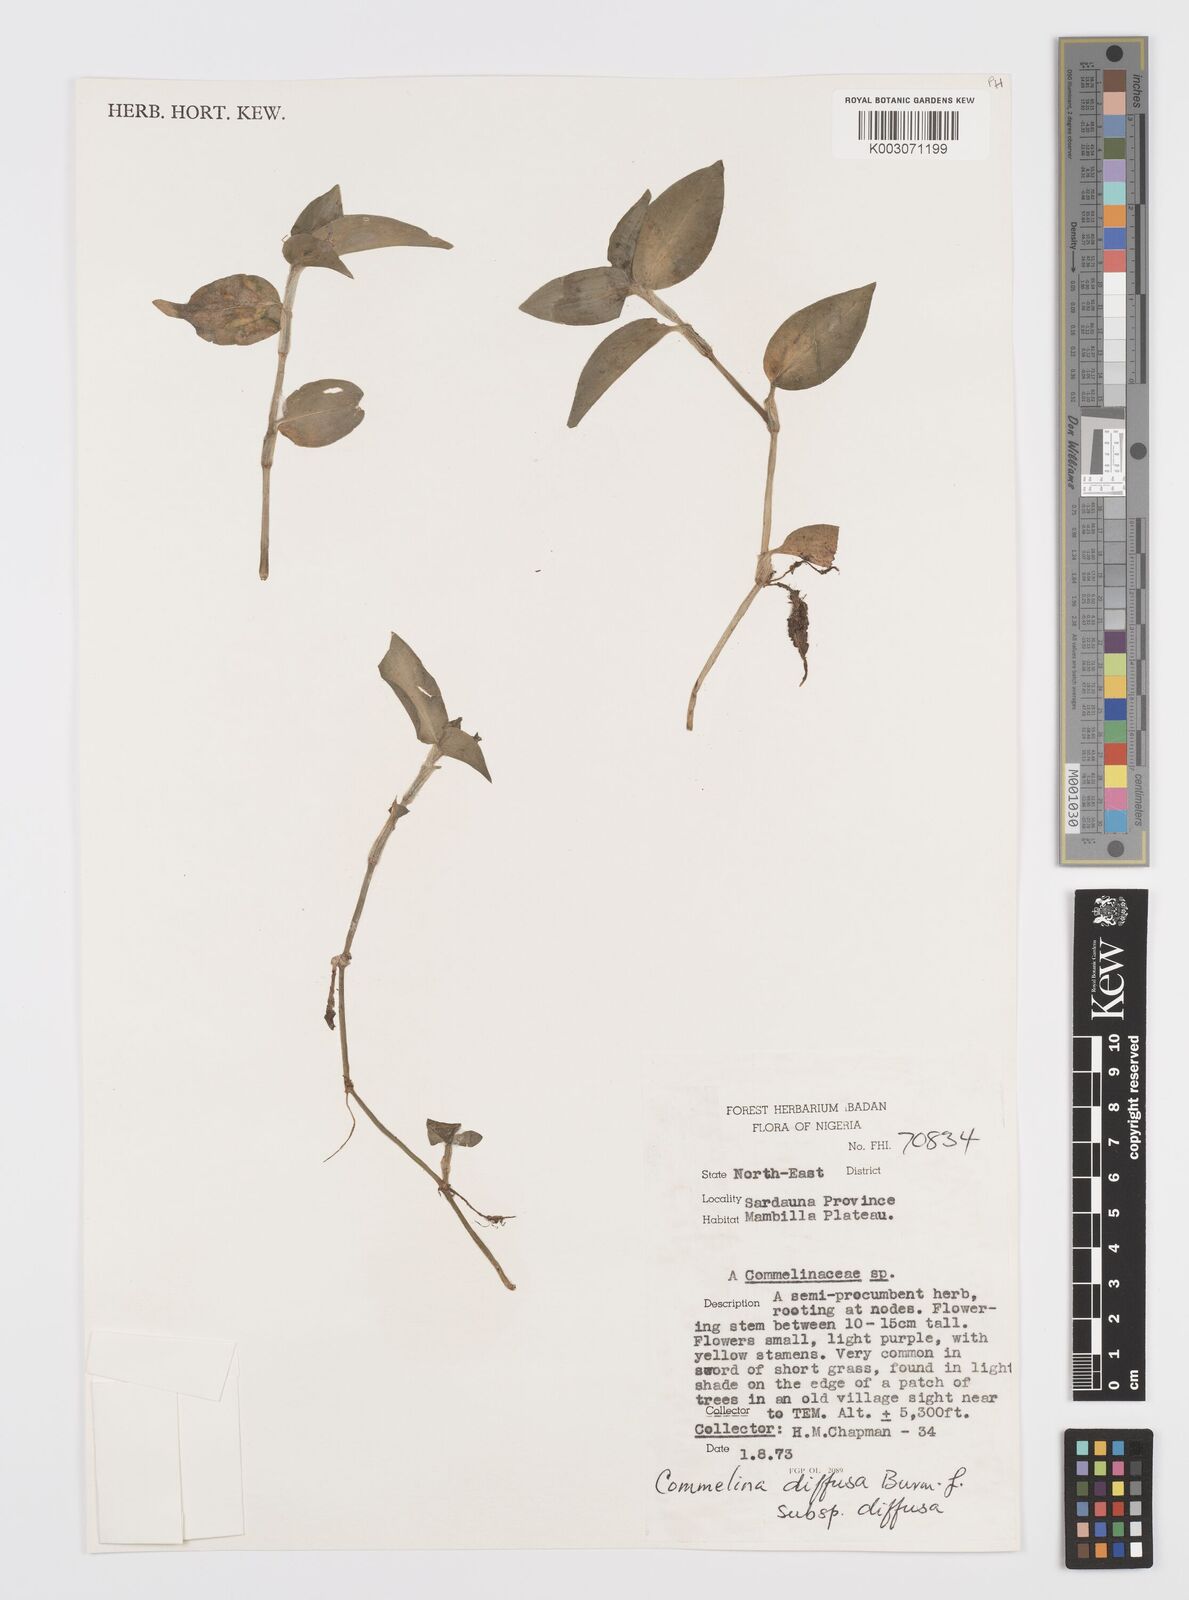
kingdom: Plantae
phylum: Tracheophyta
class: Liliopsida
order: Commelinales
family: Commelinaceae
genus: Commelina
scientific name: Commelina diffusa
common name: Climbing dayflower
